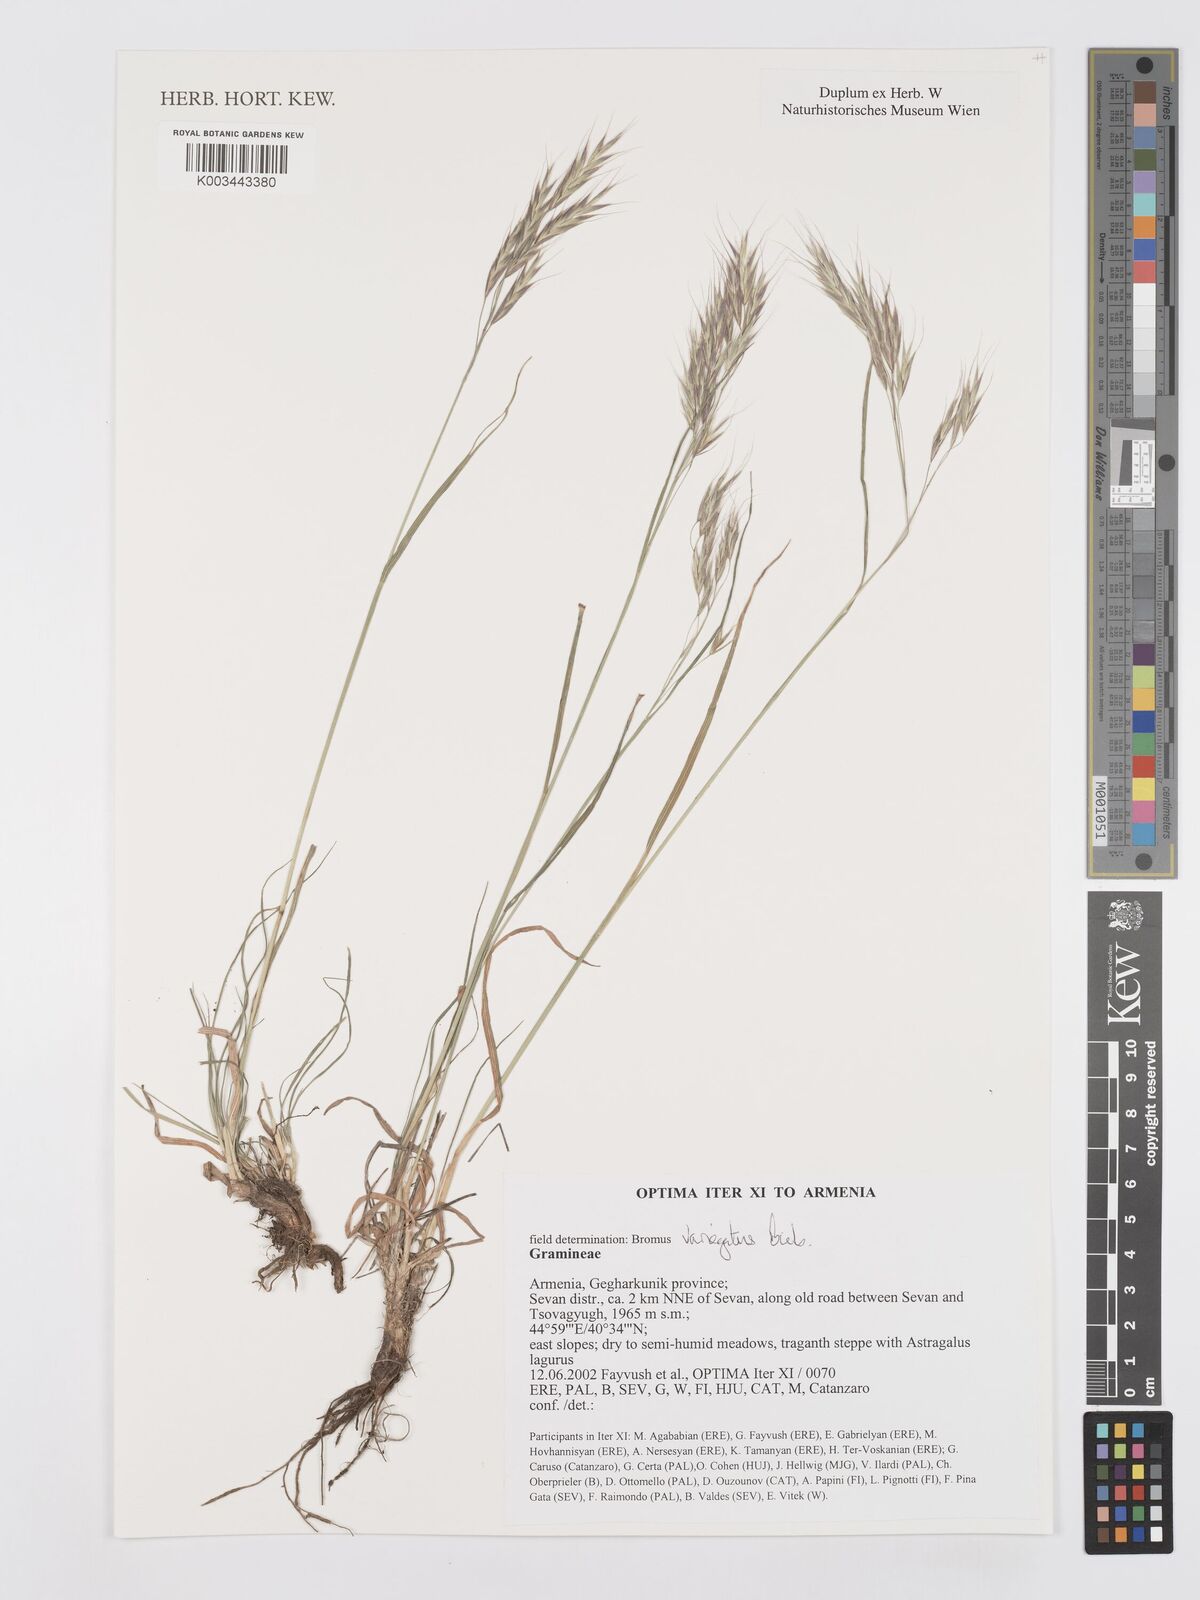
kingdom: Plantae
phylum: Tracheophyta
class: Liliopsida
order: Poales
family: Poaceae
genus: Bromus
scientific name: Bromus variegatus
